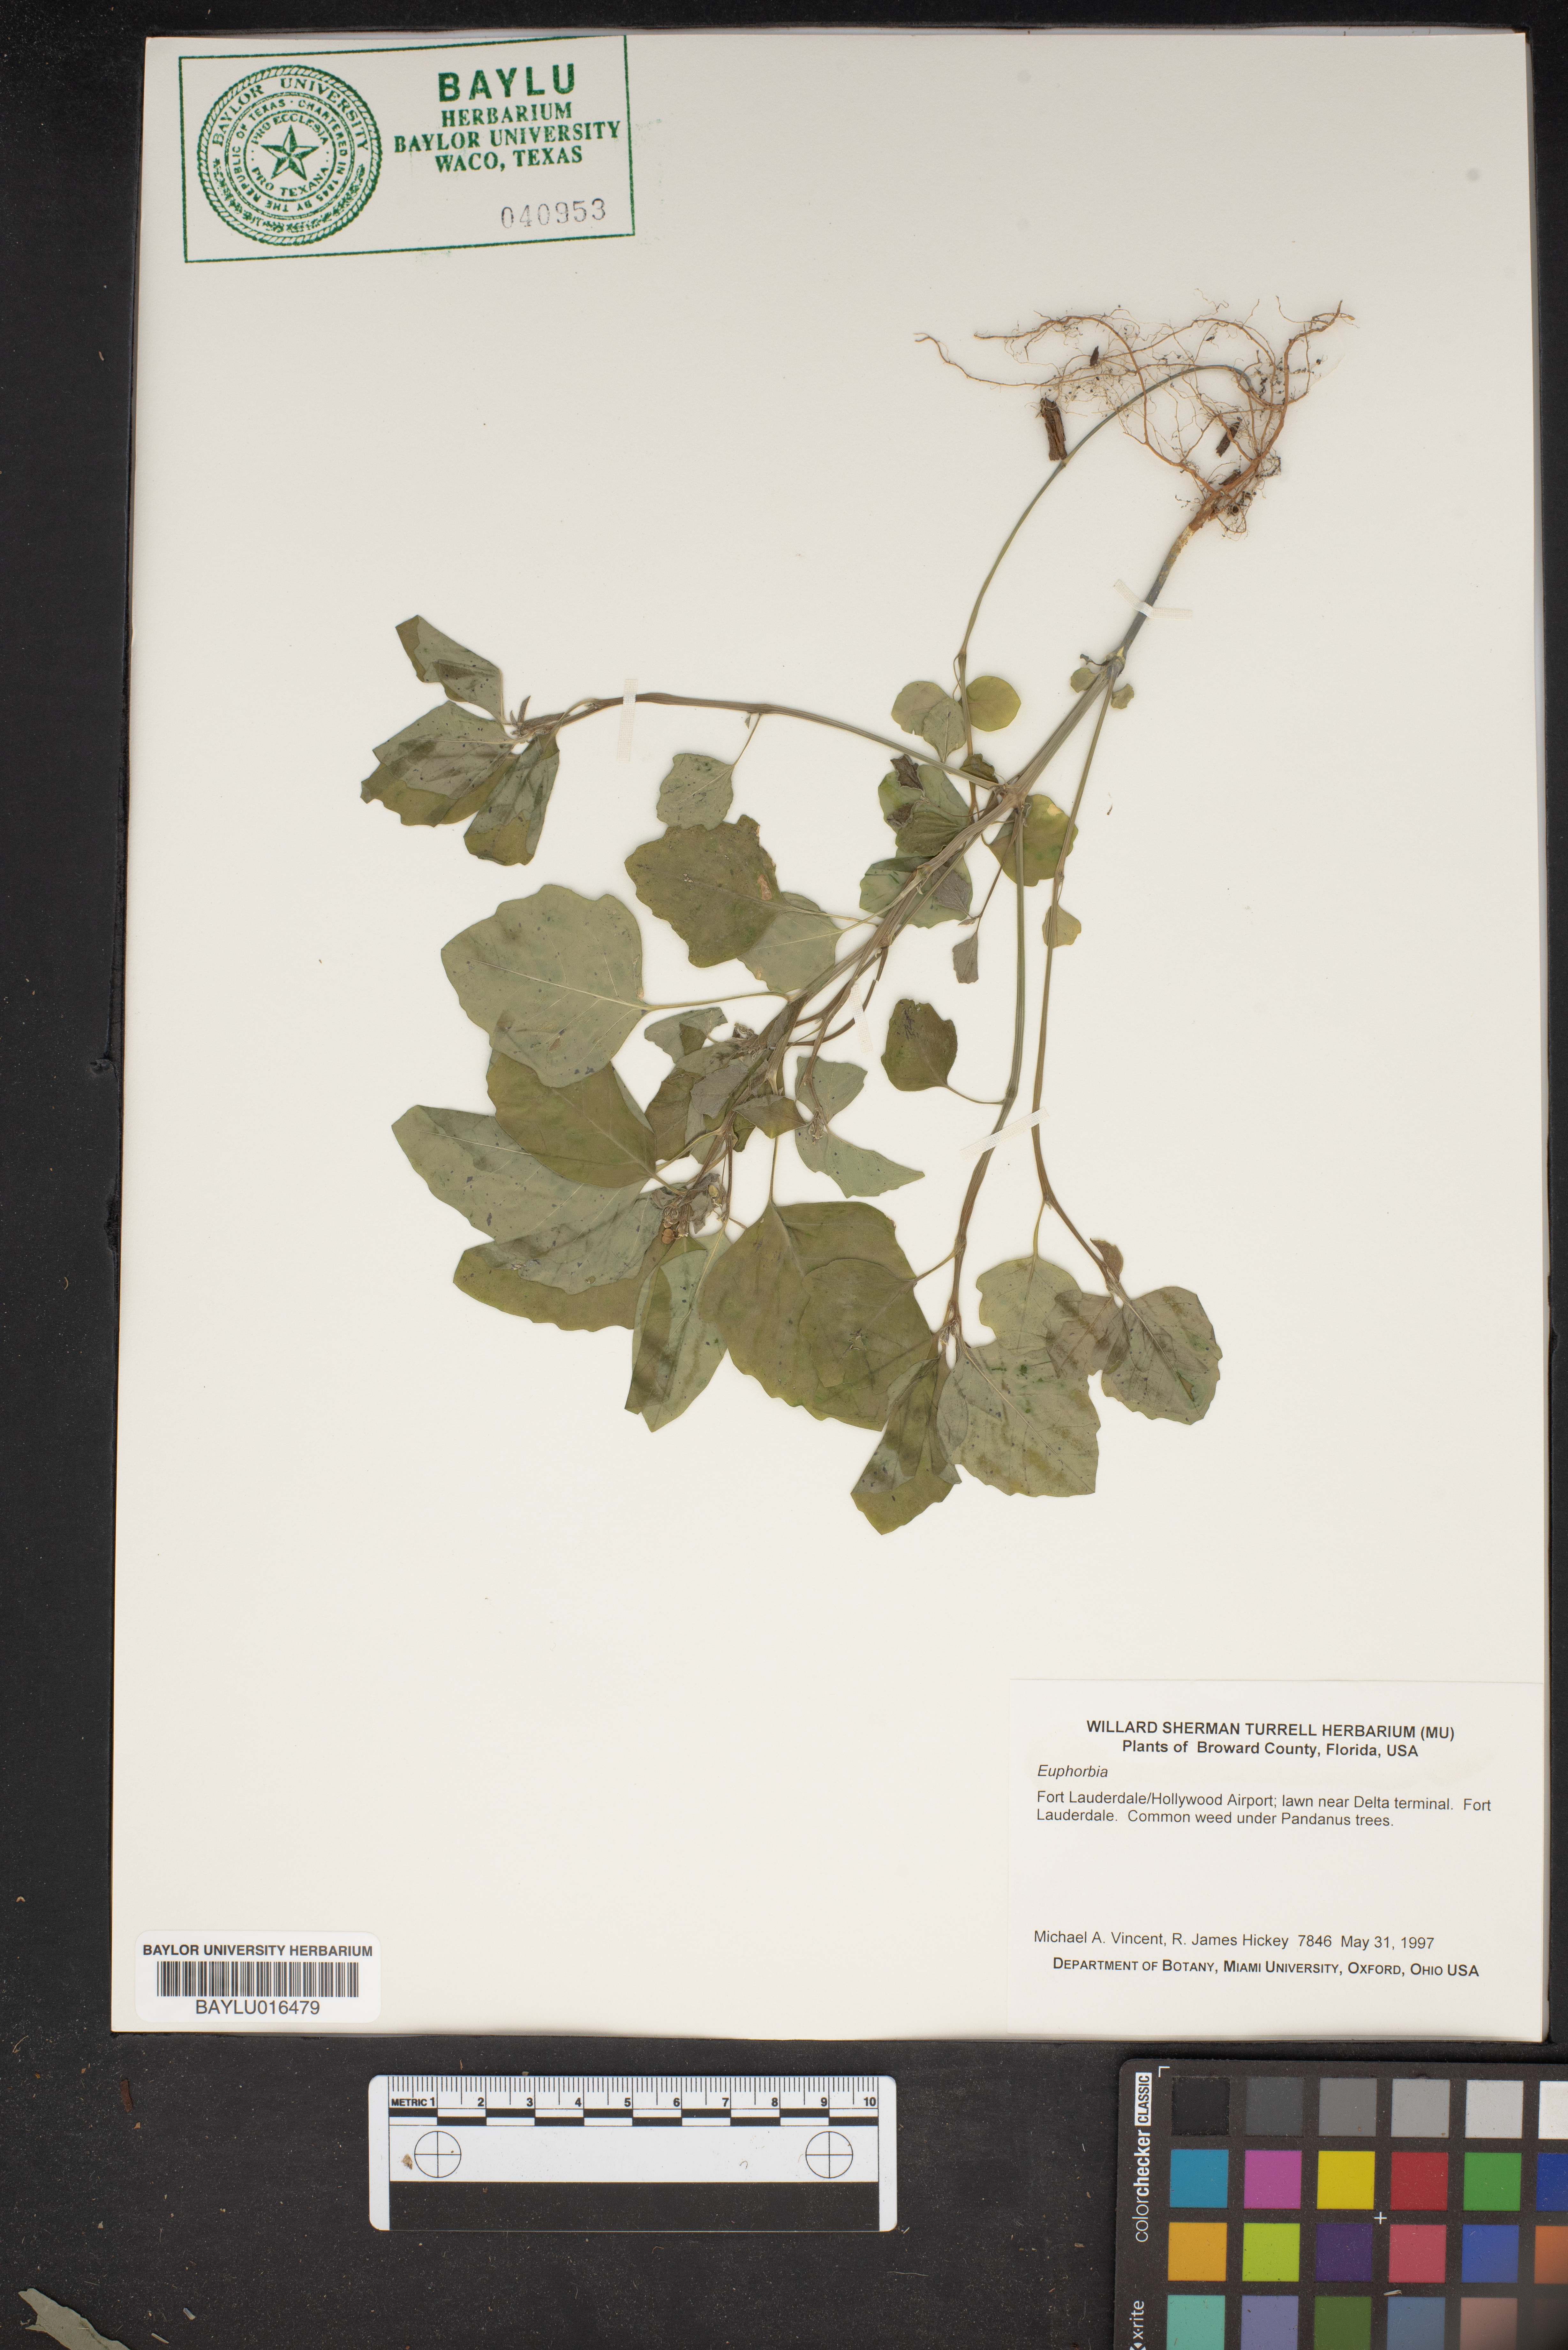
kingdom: Plantae
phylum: Tracheophyta
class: Magnoliopsida
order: Malpighiales
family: Euphorbiaceae
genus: Euphorbia
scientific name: Euphorbia
